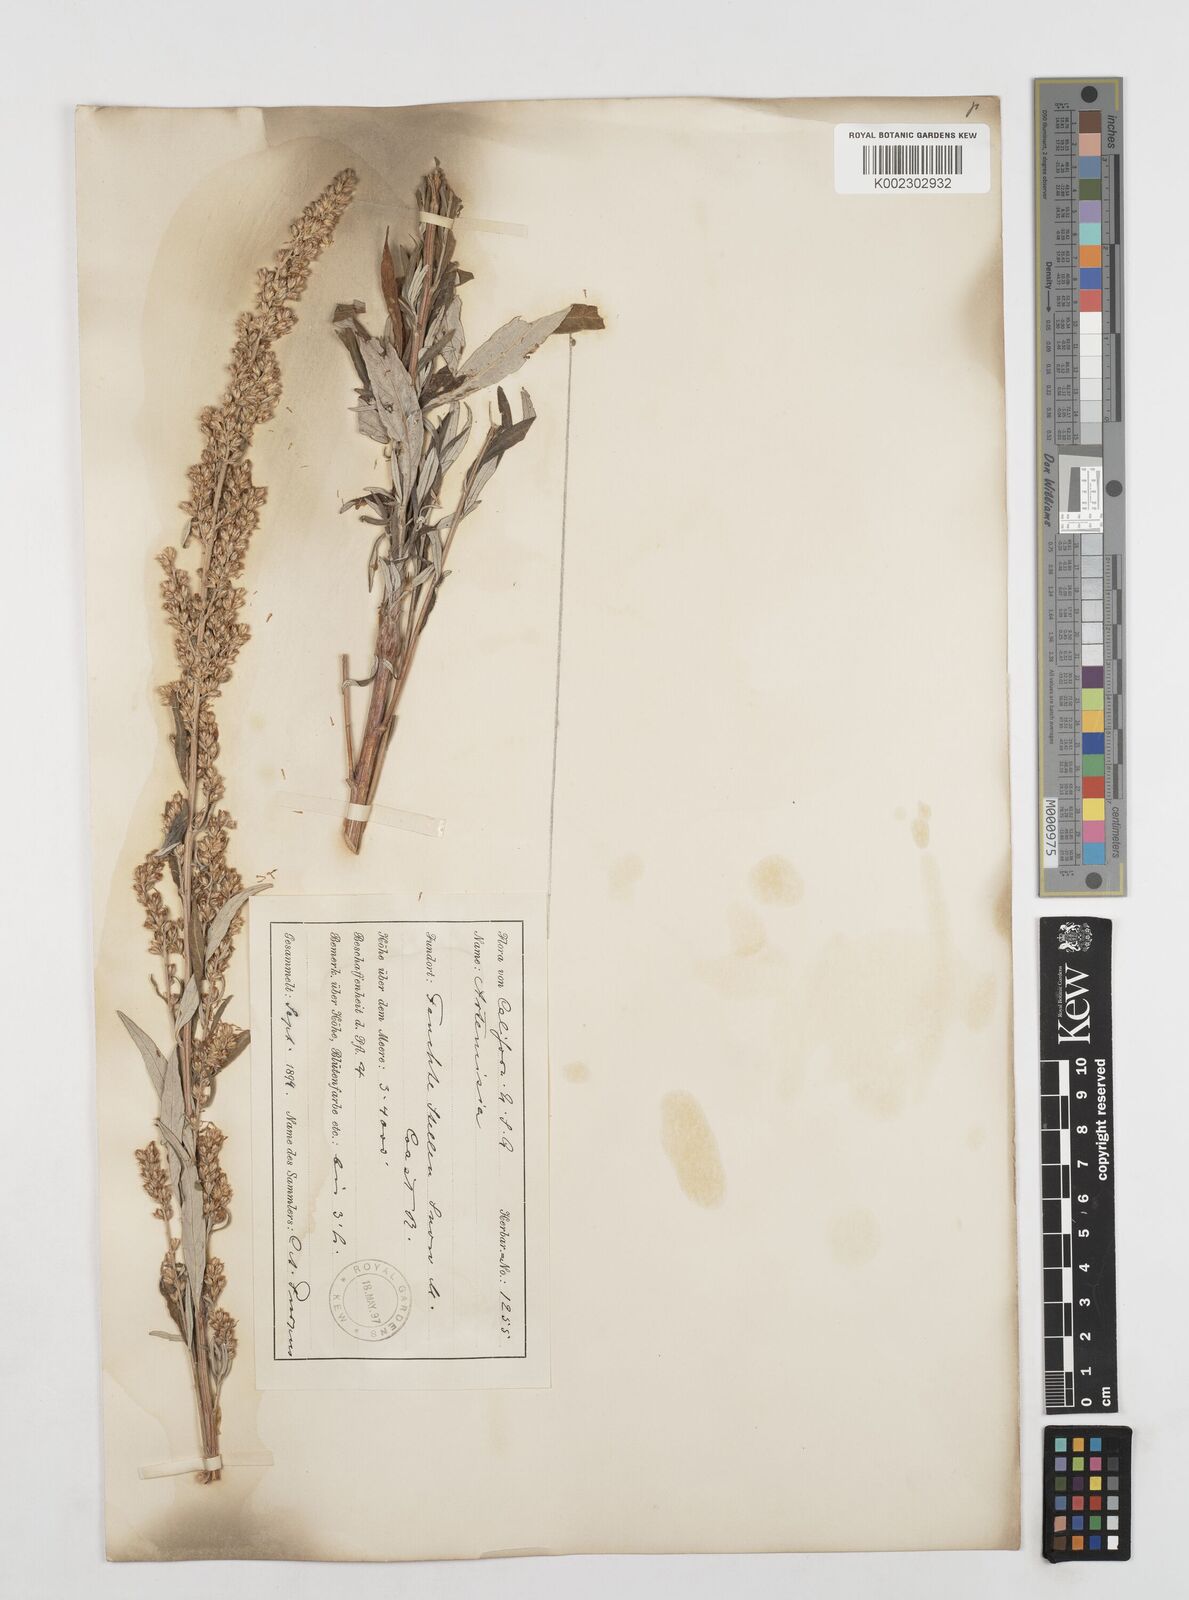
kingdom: Plantae
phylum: Tracheophyta
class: Magnoliopsida
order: Asterales
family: Asteraceae
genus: Artemisia
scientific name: Artemisia douglasiana
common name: Northwest mugwort
